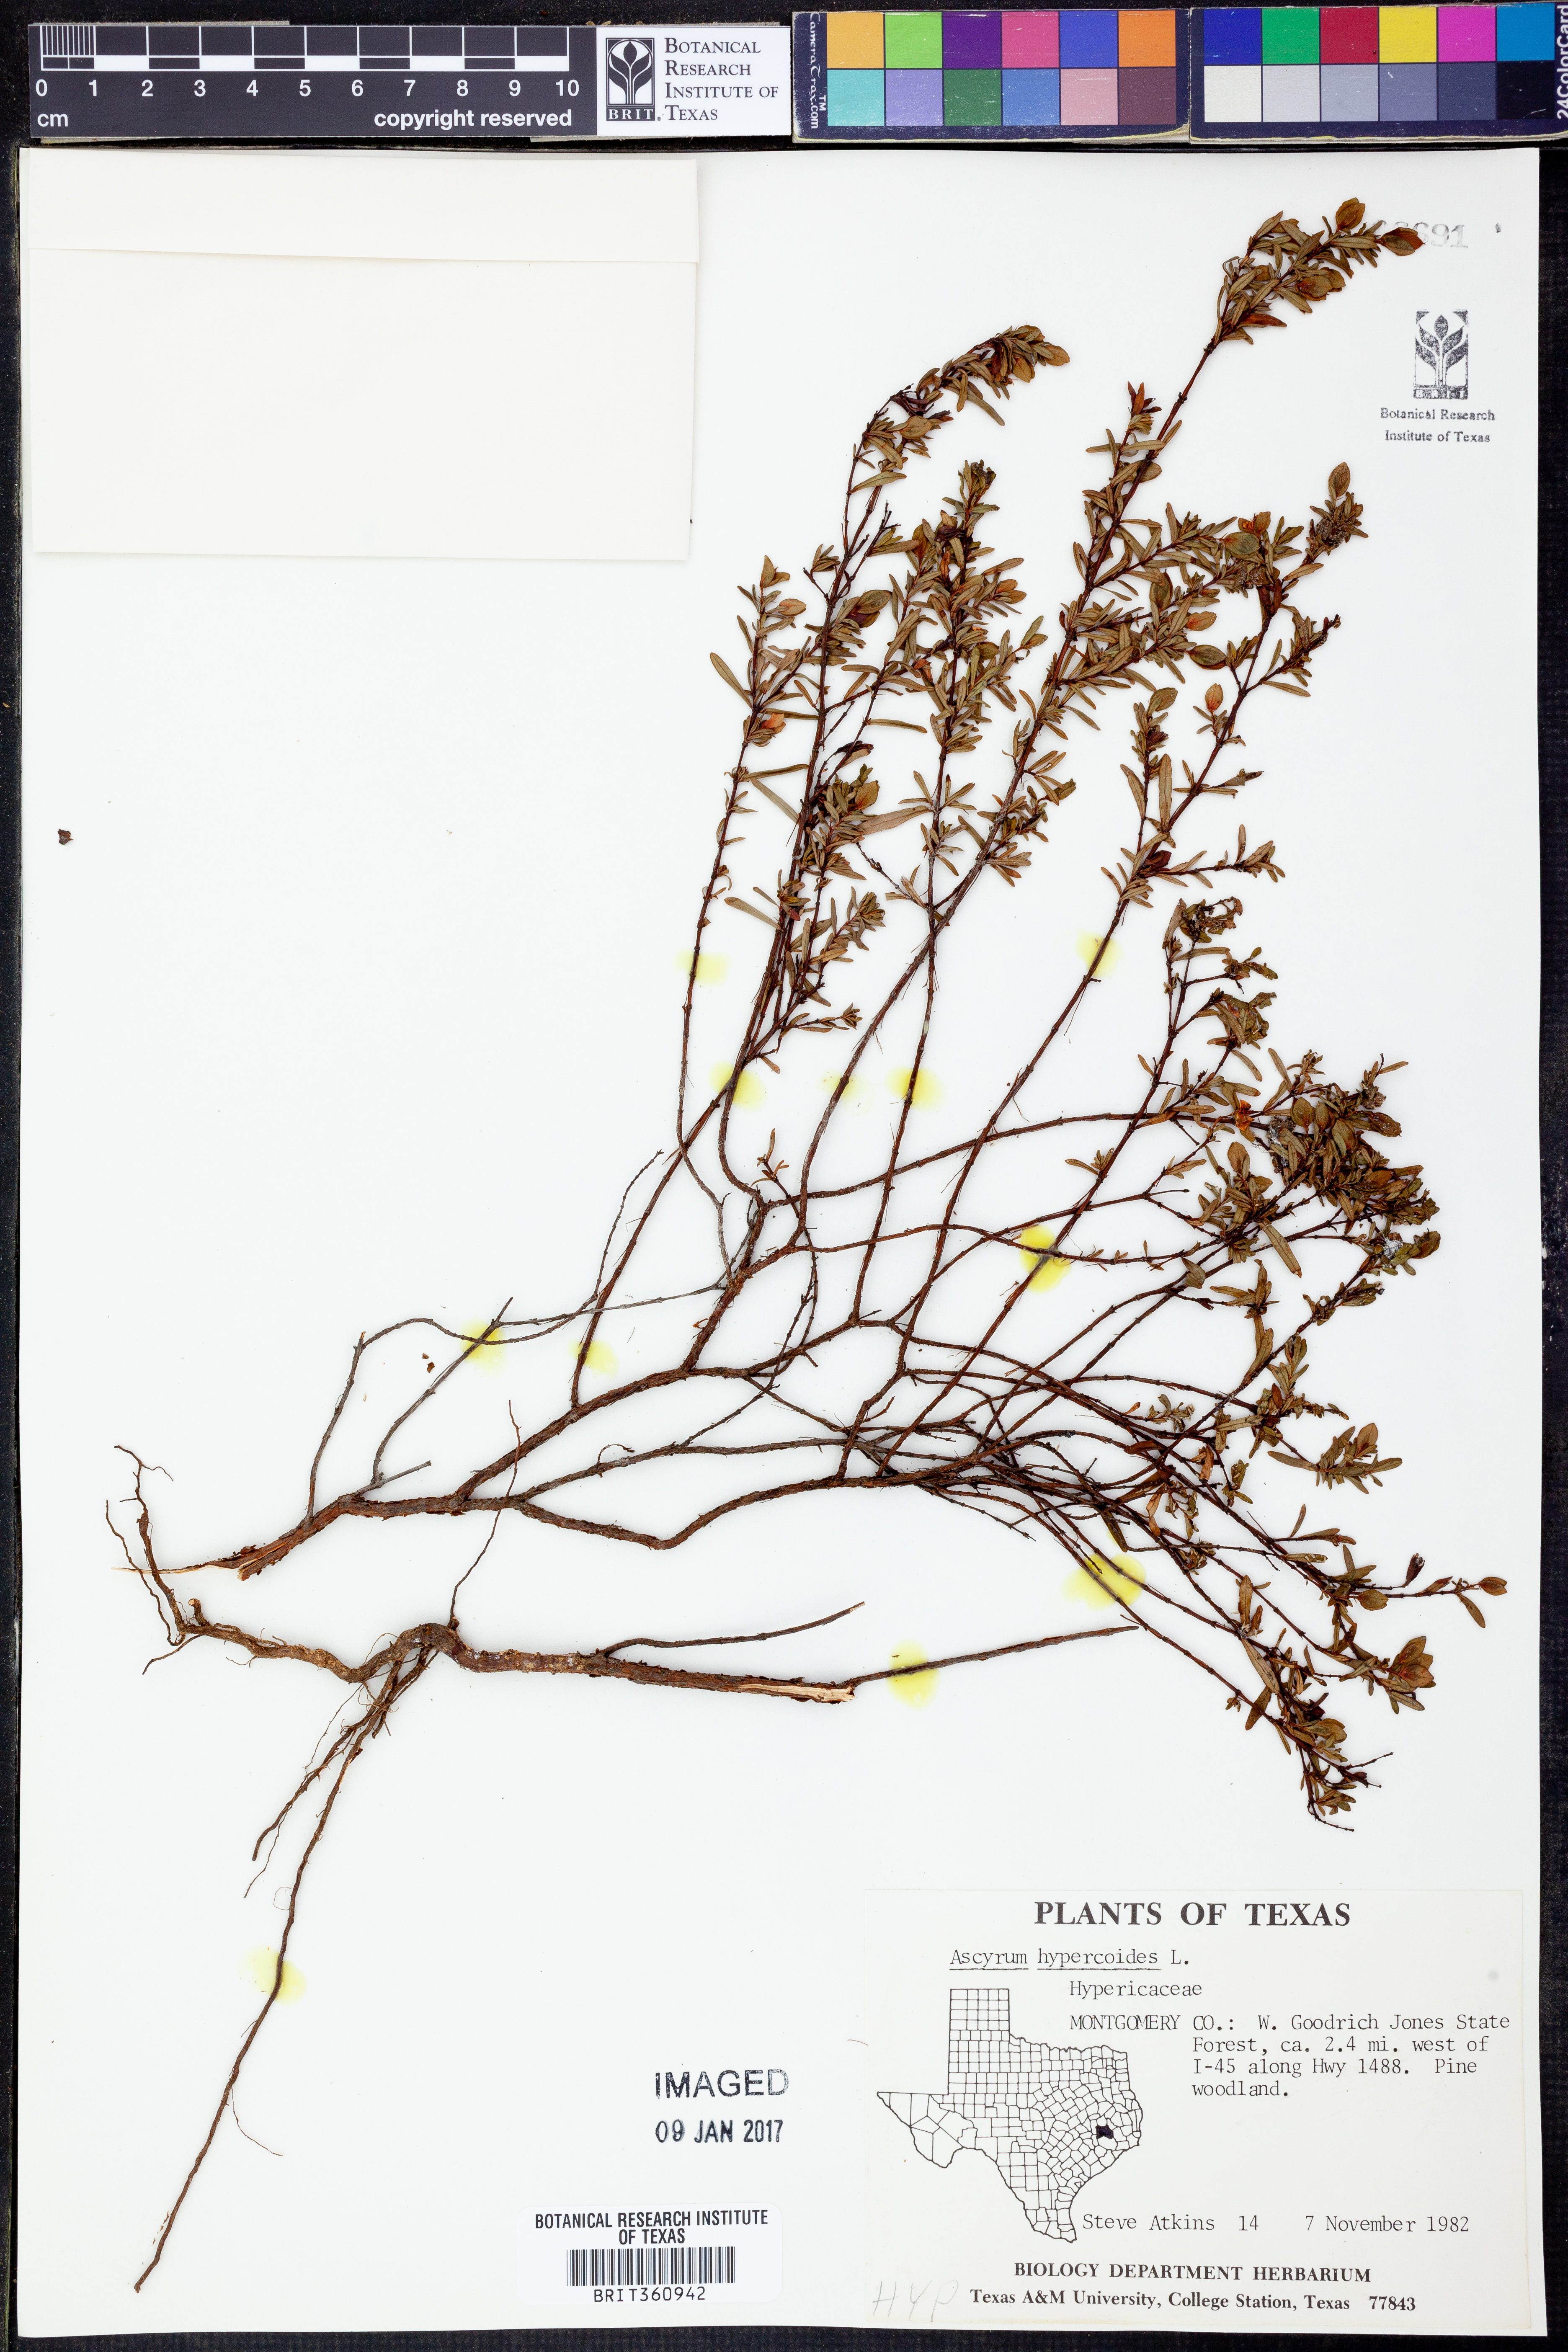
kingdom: Plantae
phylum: Tracheophyta
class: Magnoliopsida
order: Malpighiales
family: Hypericaceae
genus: Hypericum
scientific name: Hypericum hypericoides
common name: St. andrew's cross
